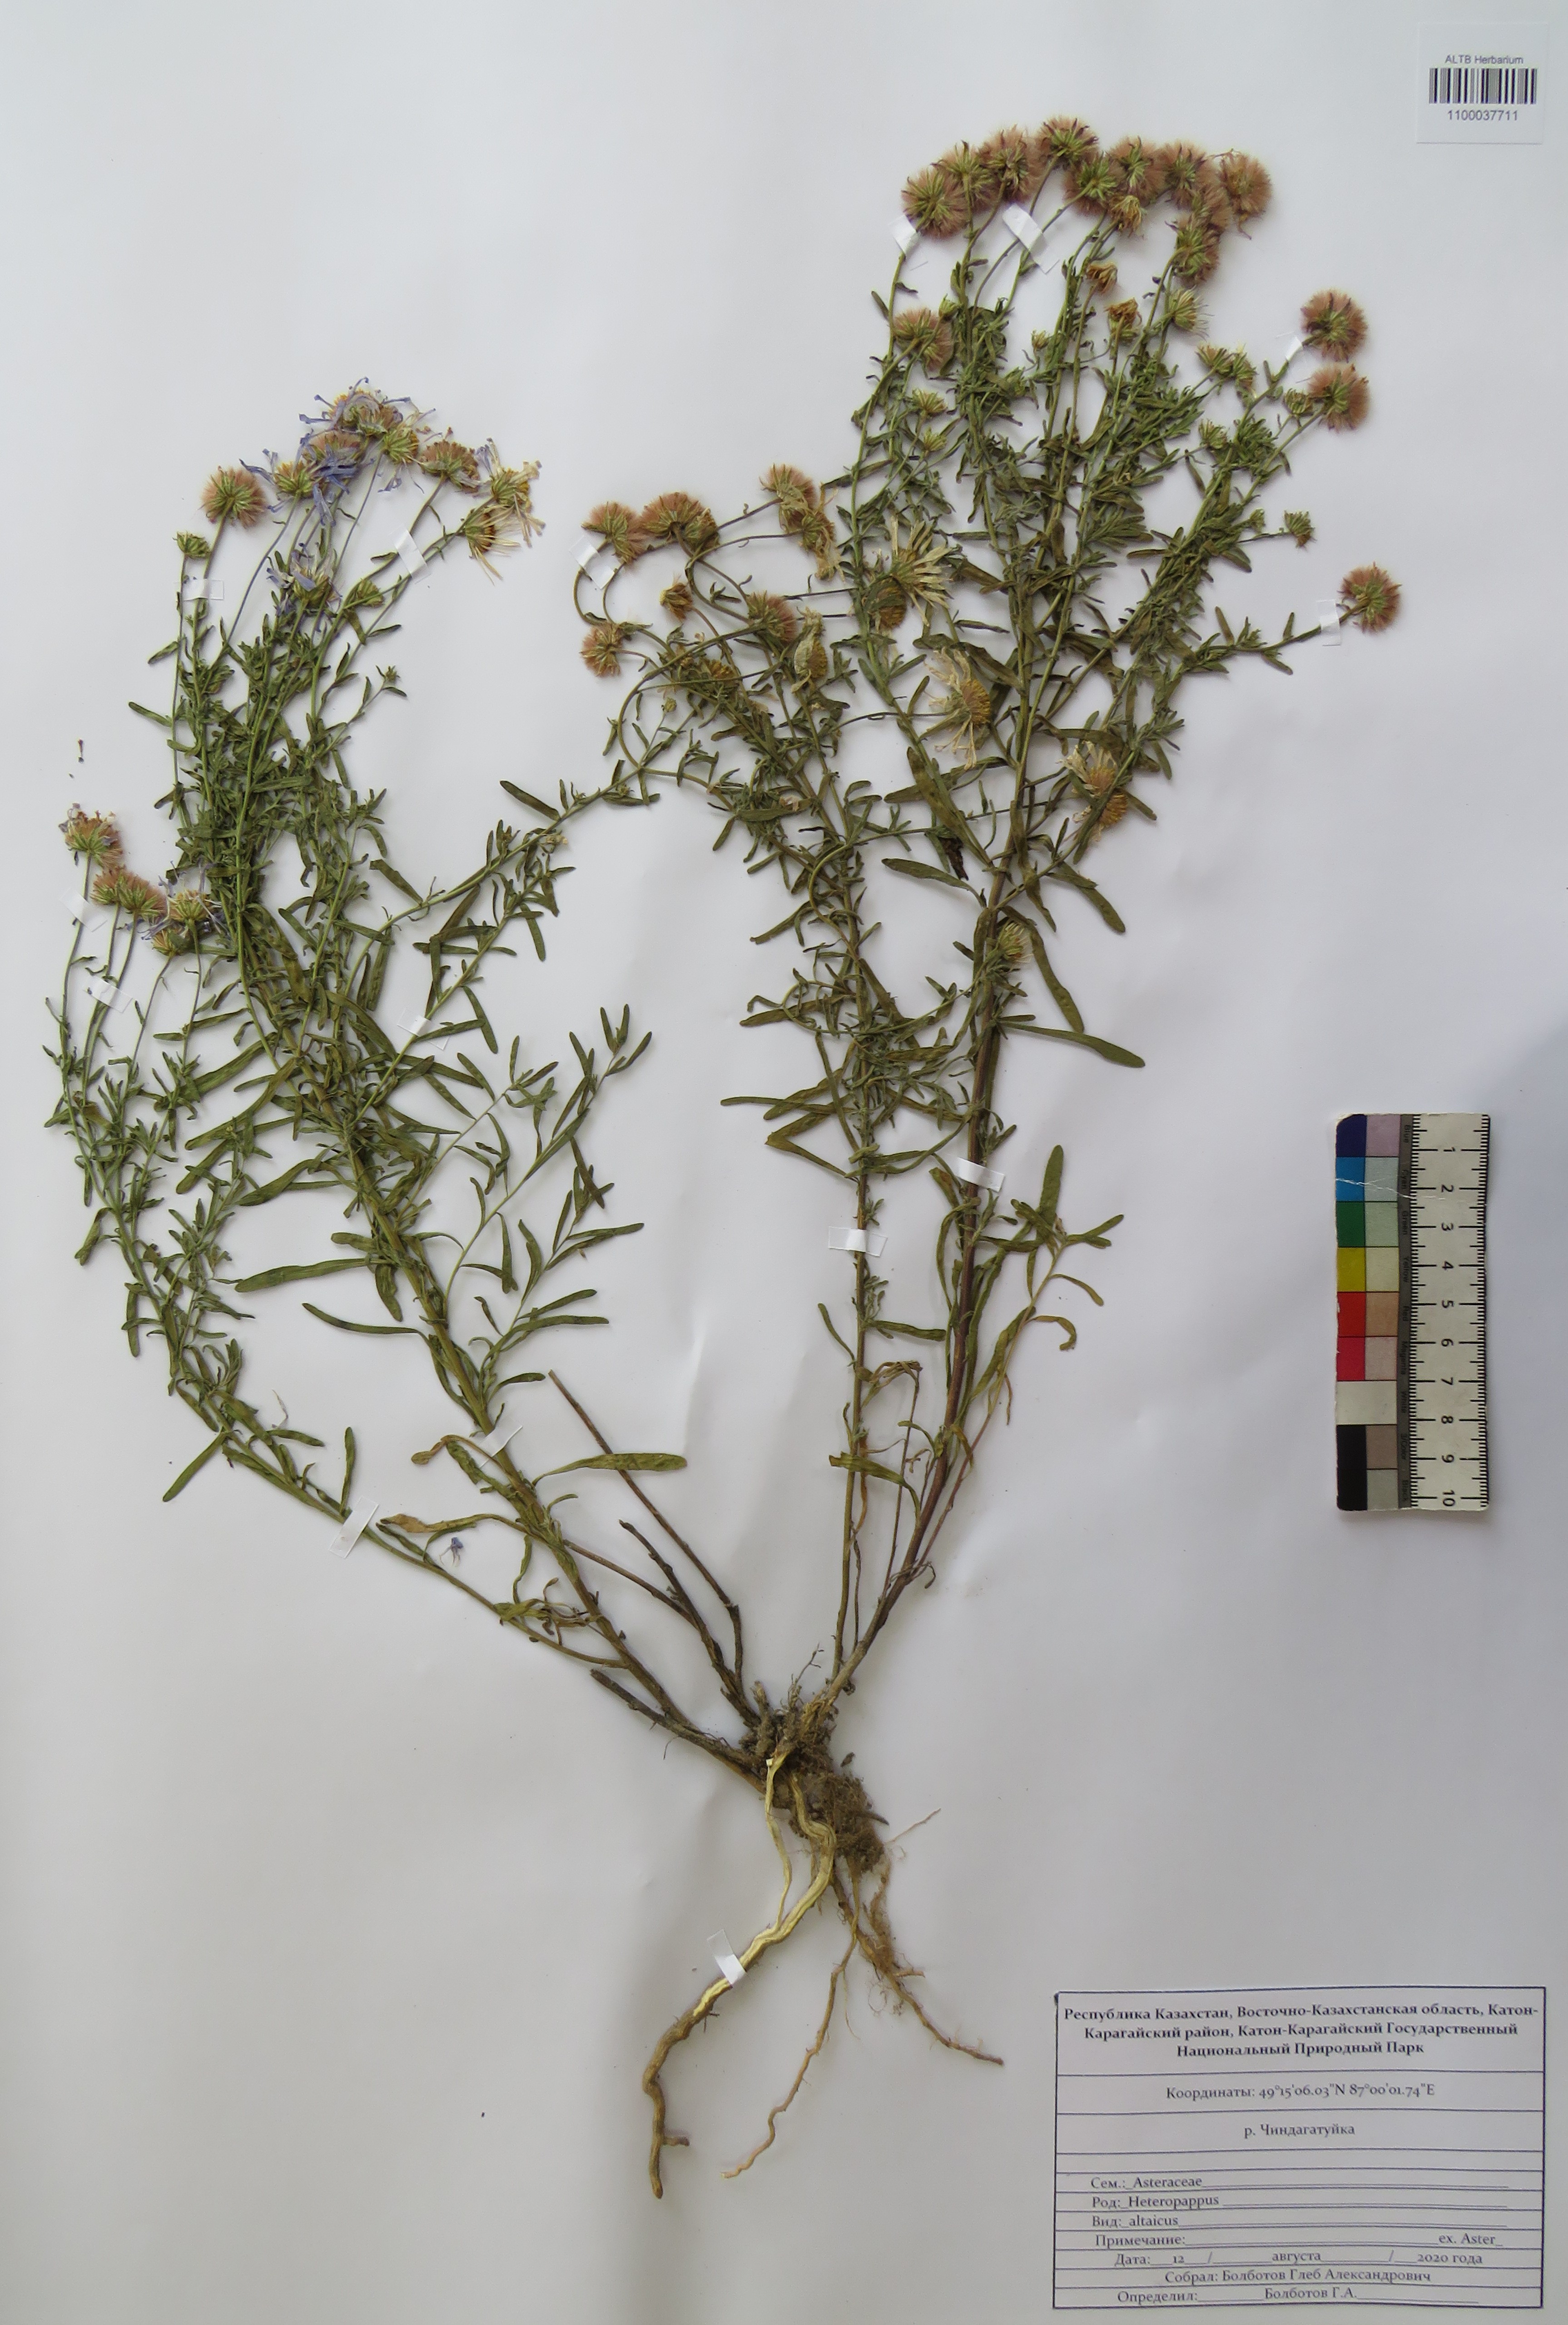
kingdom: Plantae
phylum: Tracheophyta
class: Magnoliopsida
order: Asterales
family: Asteraceae
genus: Heteropappus
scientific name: Heteropappus altaicus
